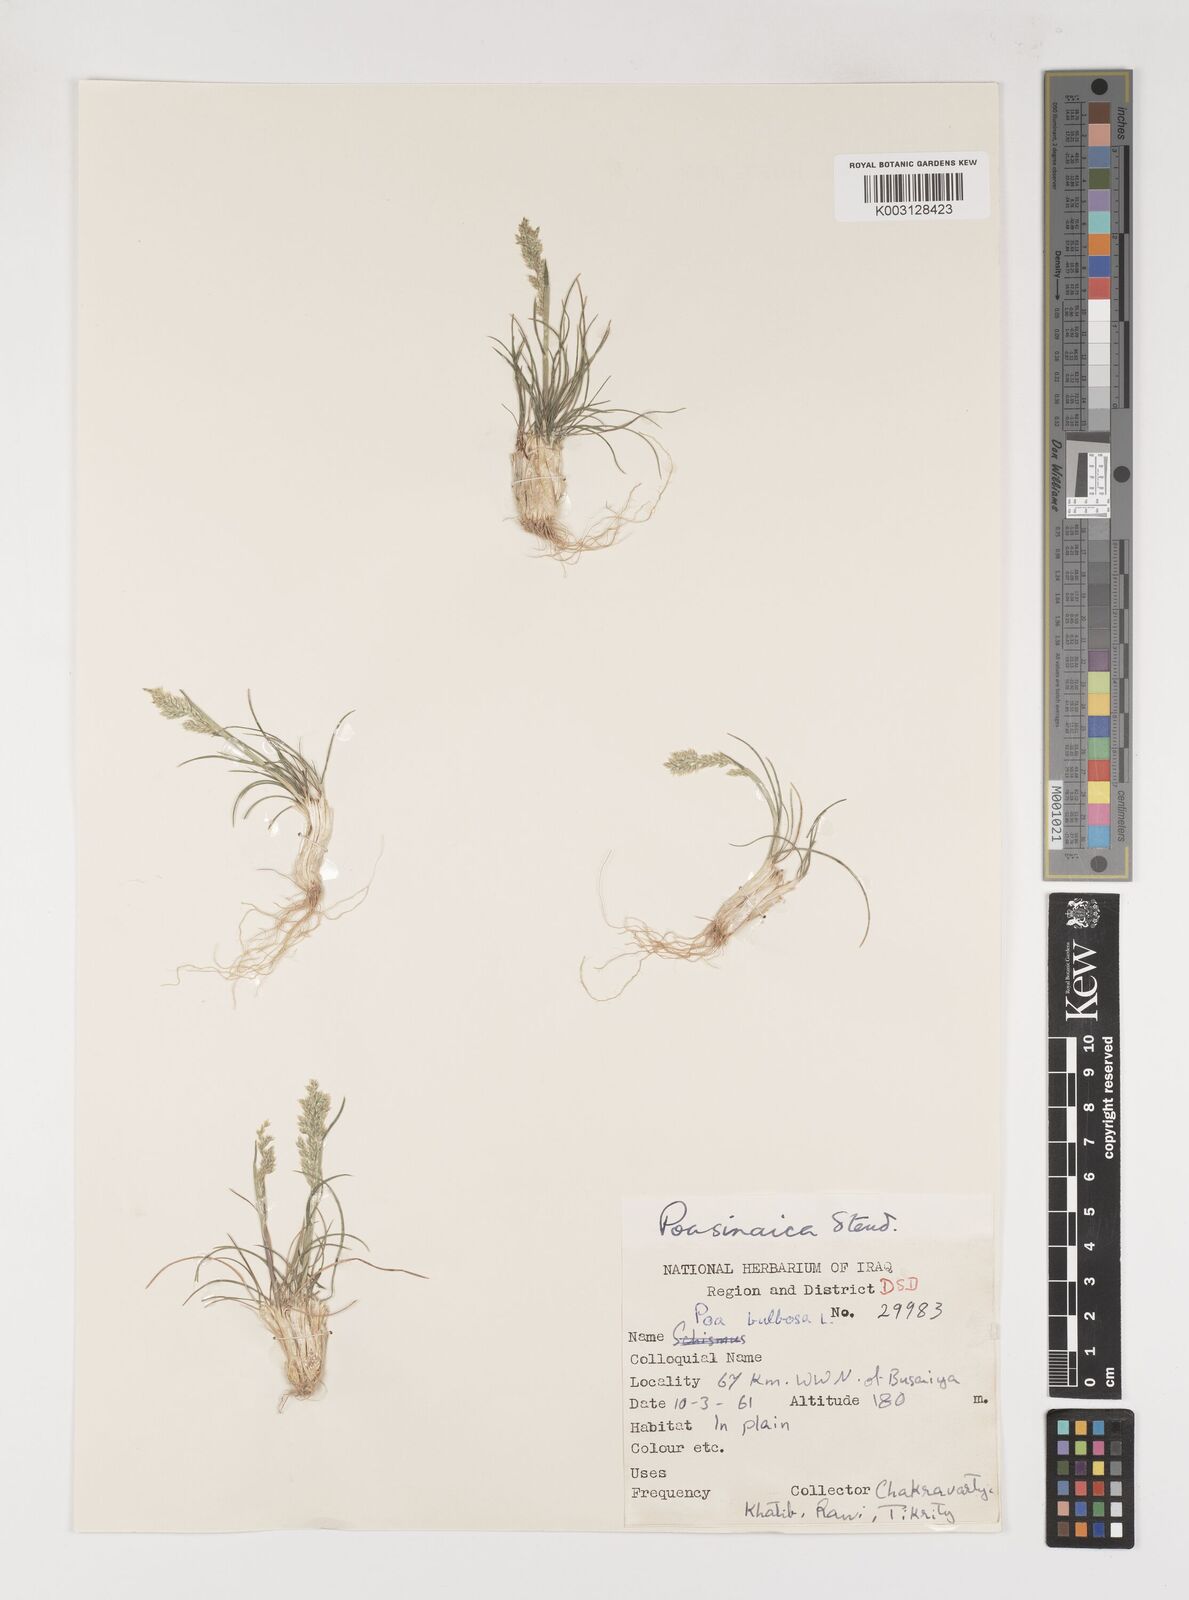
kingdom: Plantae
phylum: Tracheophyta
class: Liliopsida
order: Poales
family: Poaceae
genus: Poa
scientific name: Poa sinaica
